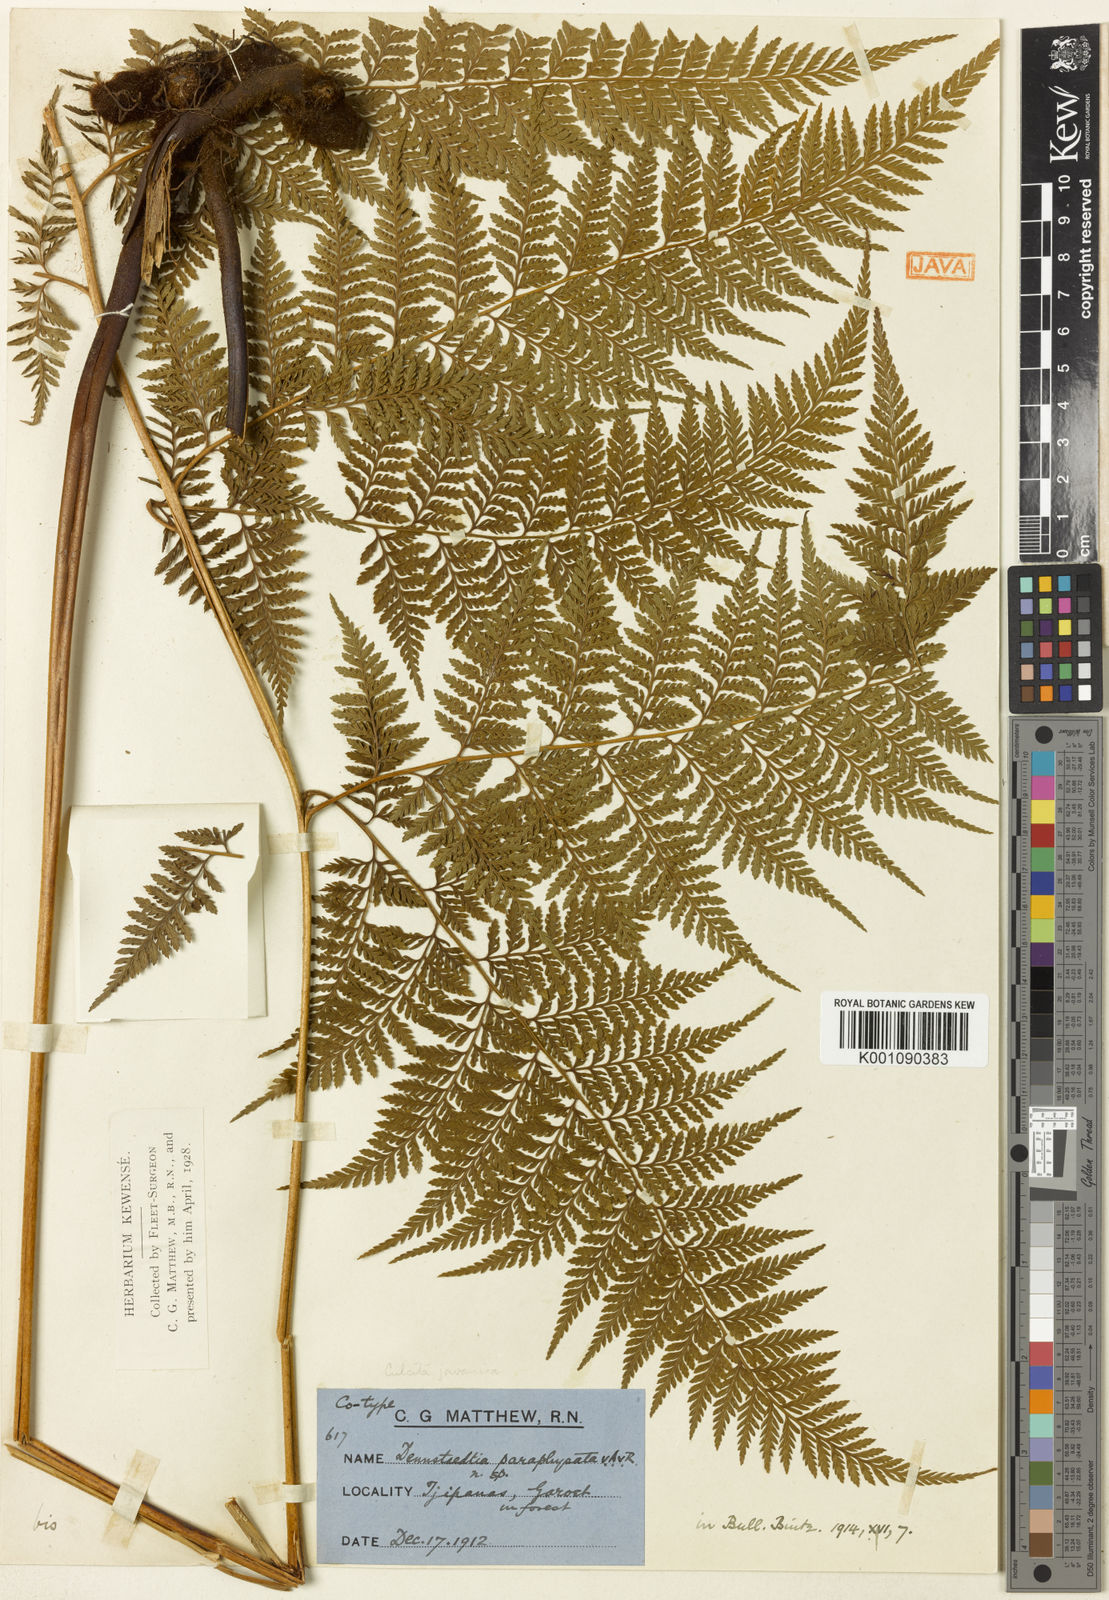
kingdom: Plantae
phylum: Tracheophyta
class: Polypodiopsida
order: Cyatheales
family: Dicksoniaceae
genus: Calochlaena
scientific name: Calochlaena javanica
